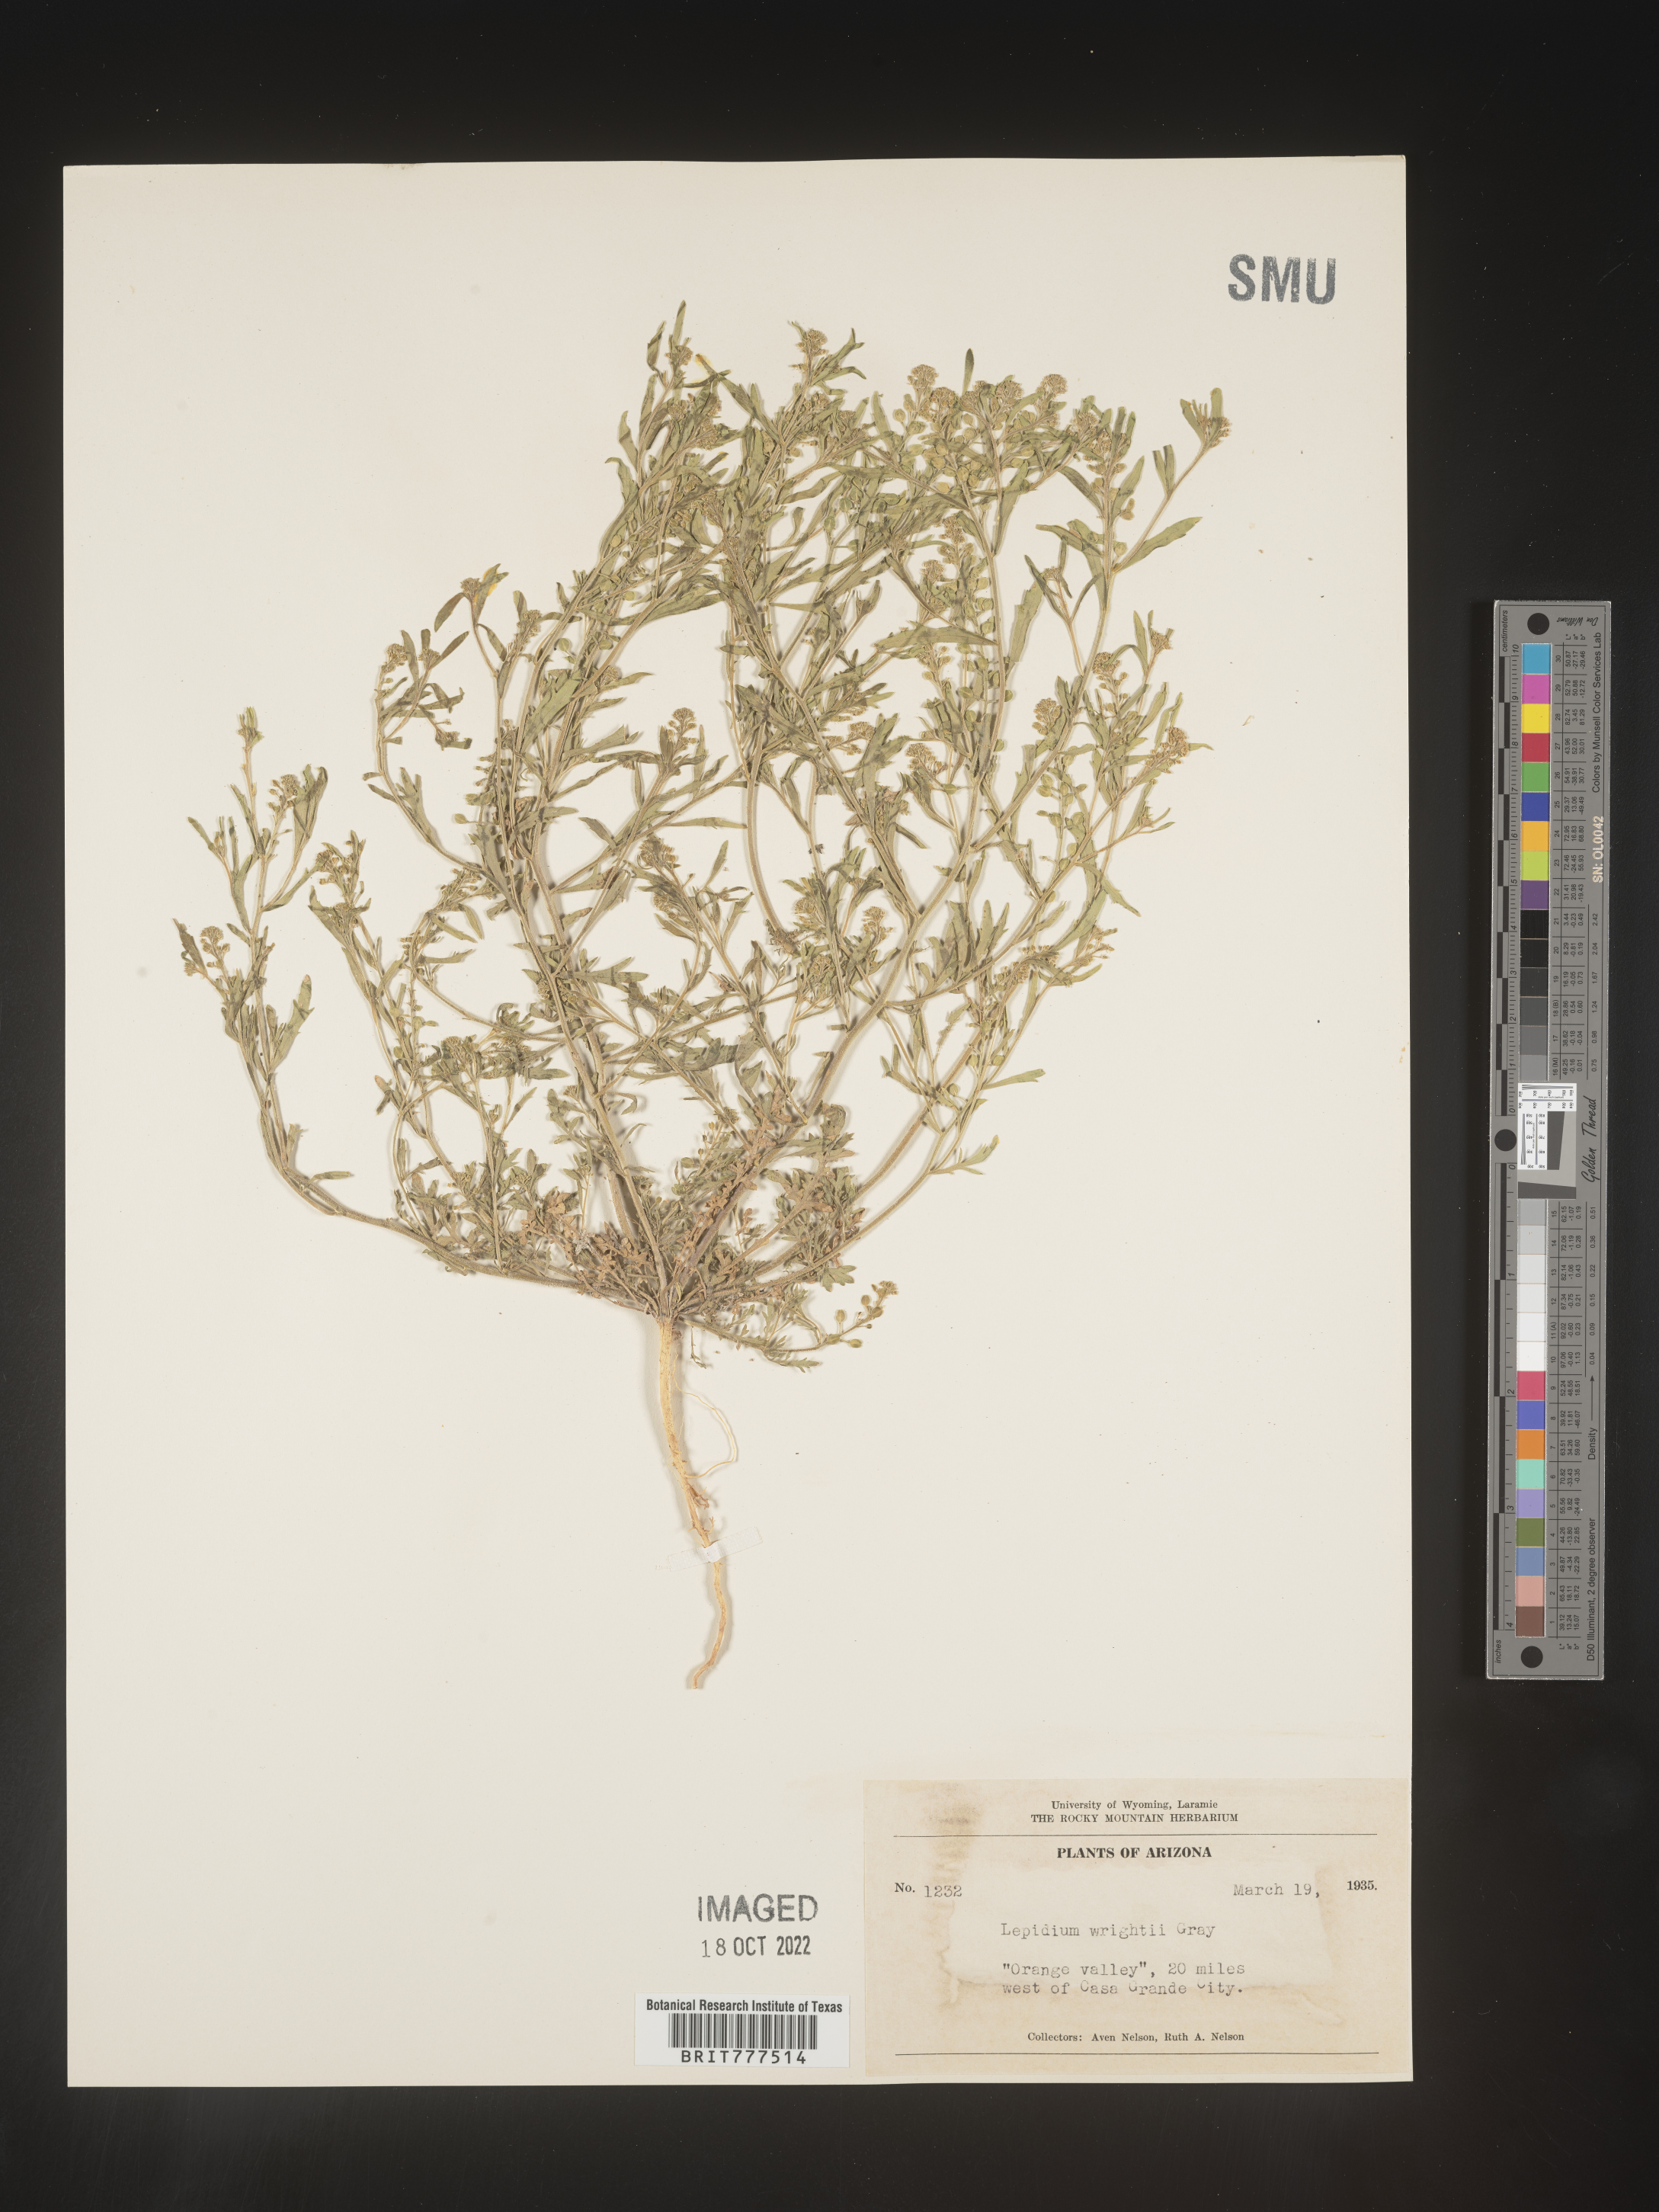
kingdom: Plantae
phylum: Tracheophyta
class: Magnoliopsida
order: Brassicales
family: Brassicaceae
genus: Lepidium
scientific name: Lepidium
